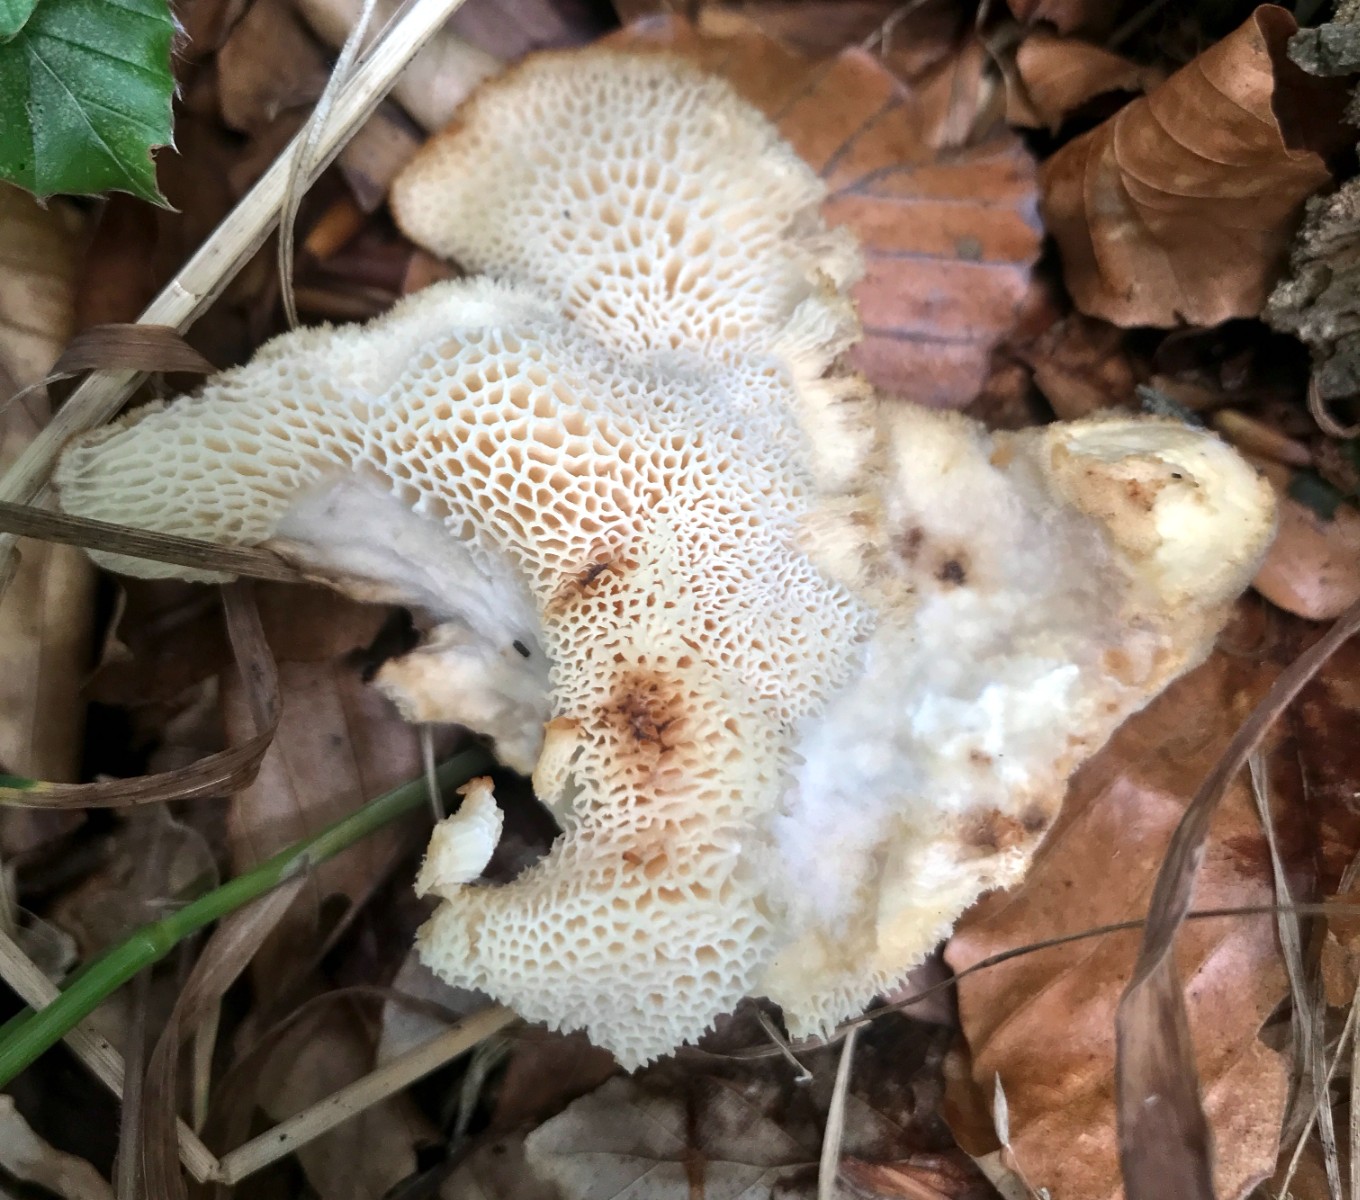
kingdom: Fungi
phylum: Basidiomycota
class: Agaricomycetes
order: Polyporales
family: Polyporaceae
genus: Polyporus
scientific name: Polyporus tuberaster
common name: knoldet stilkporesvamp
